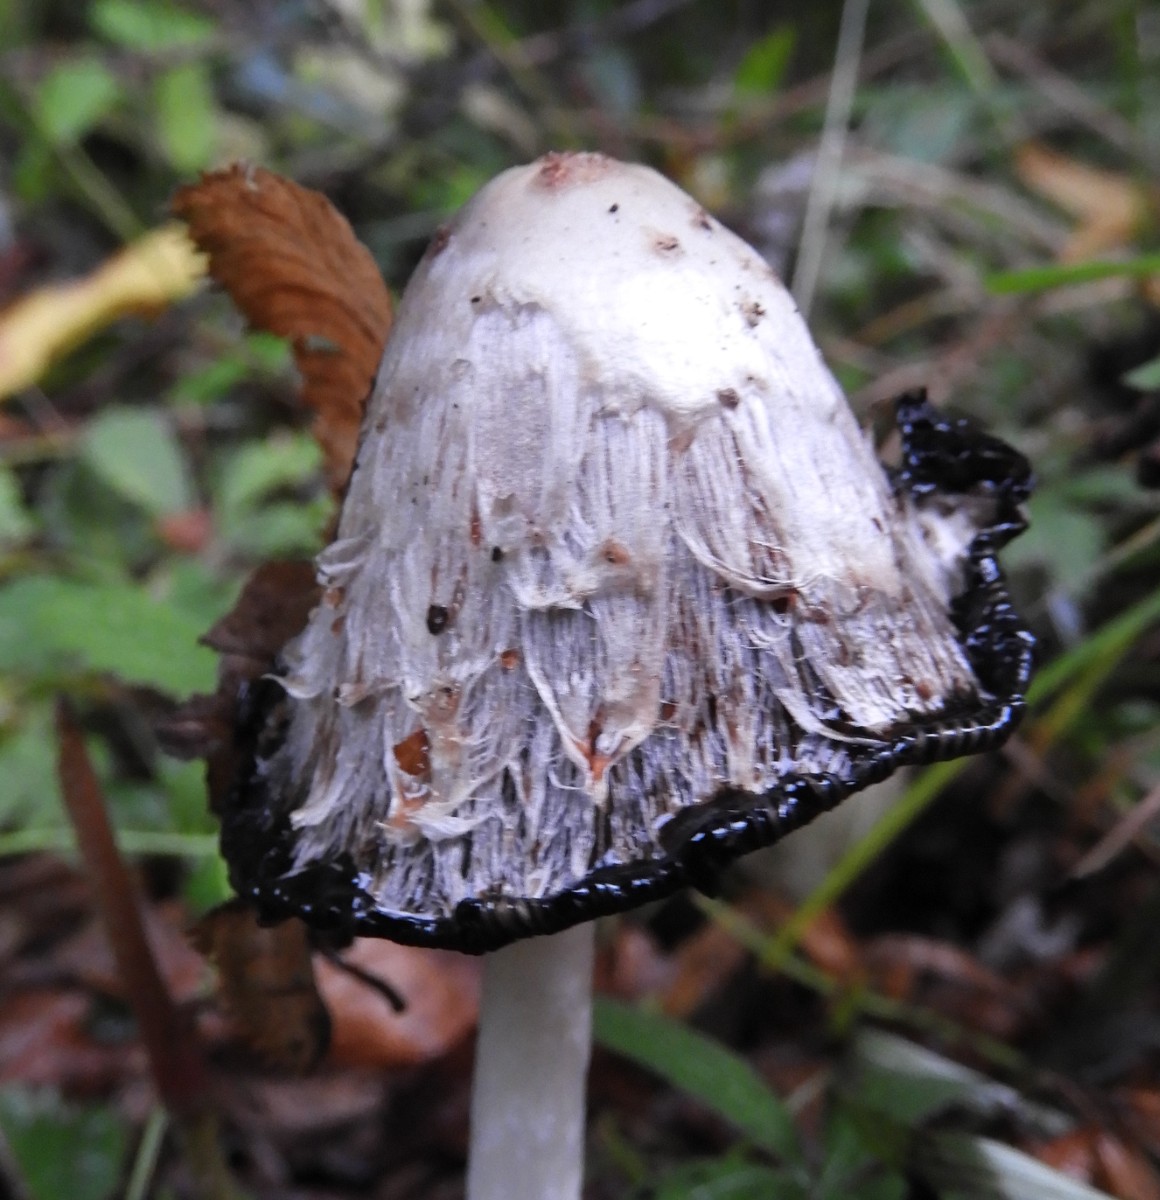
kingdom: Fungi
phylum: Basidiomycota
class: Agaricomycetes
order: Agaricales
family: Agaricaceae
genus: Coprinus
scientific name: Coprinus comatus
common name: stor parykhat
